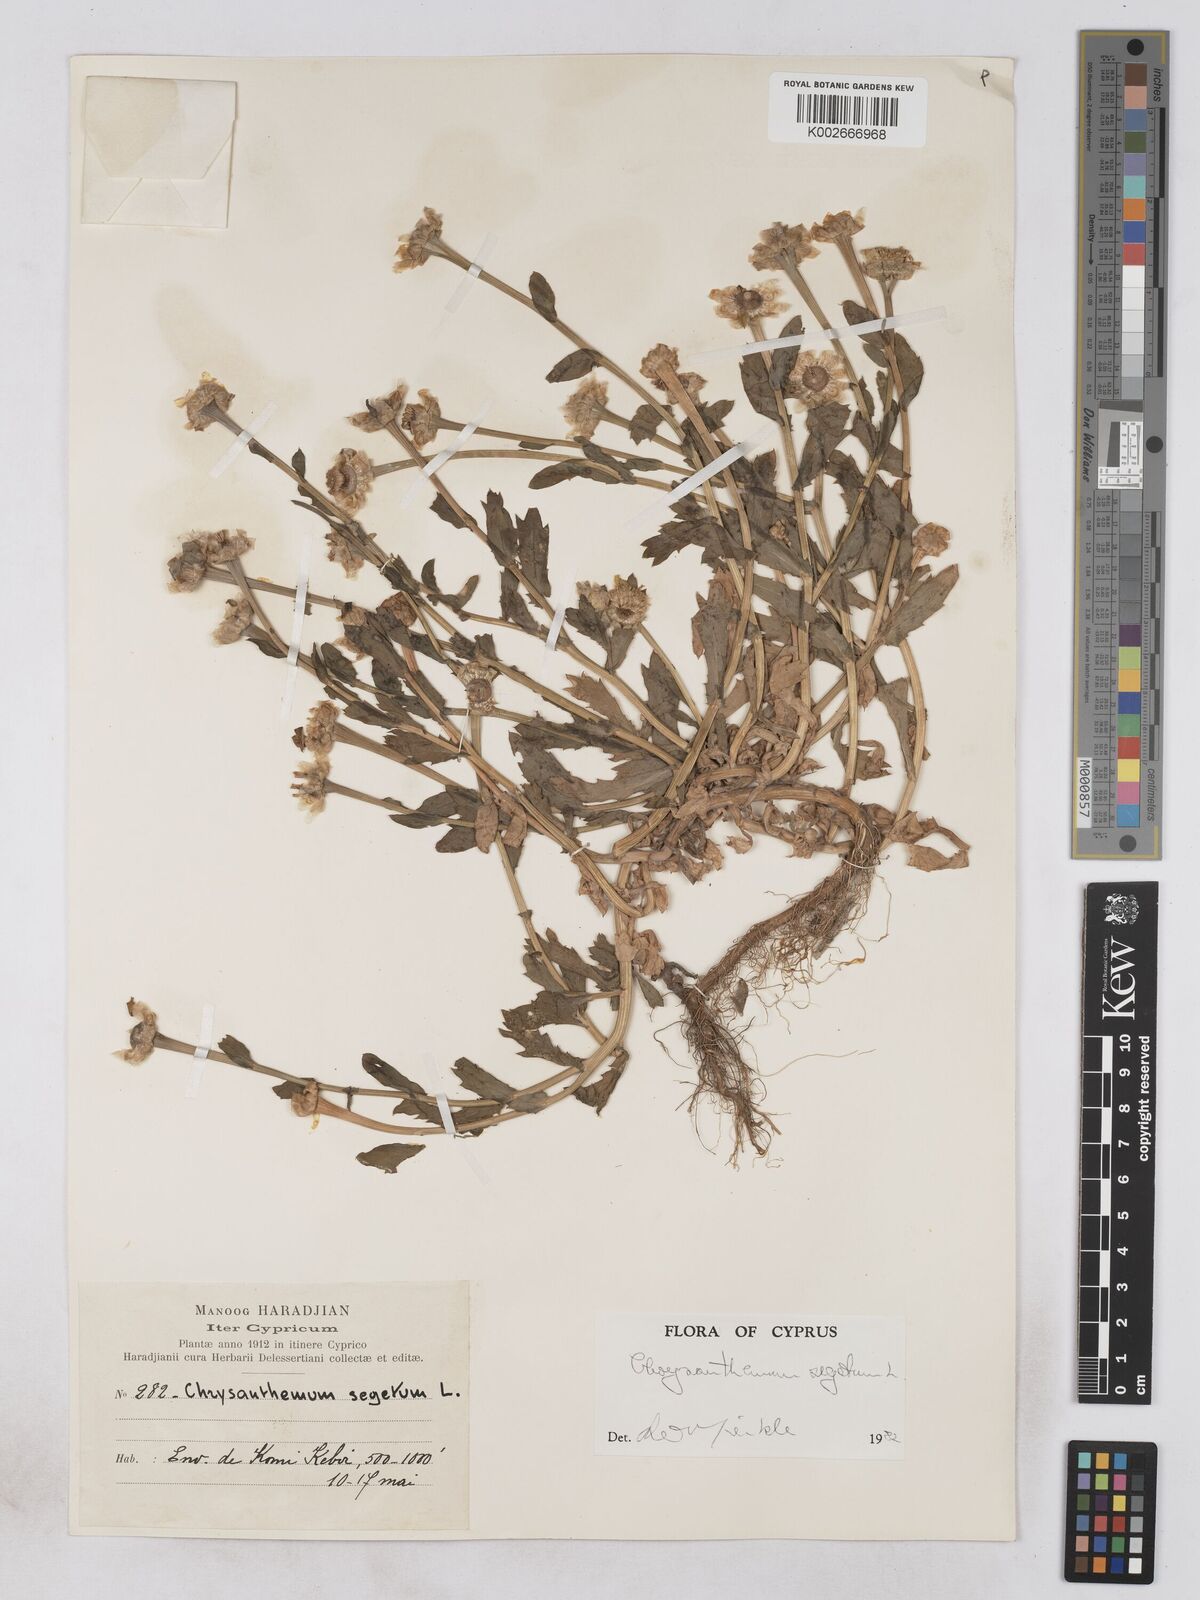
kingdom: Plantae
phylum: Tracheophyta
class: Magnoliopsida
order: Asterales
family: Asteraceae
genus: Glebionis
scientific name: Glebionis segetum
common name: Corndaisy
